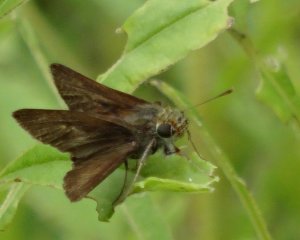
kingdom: Animalia
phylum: Arthropoda
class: Insecta
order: Lepidoptera
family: Hesperiidae
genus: Euphyes
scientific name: Euphyes vestris
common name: Dun Skipper
